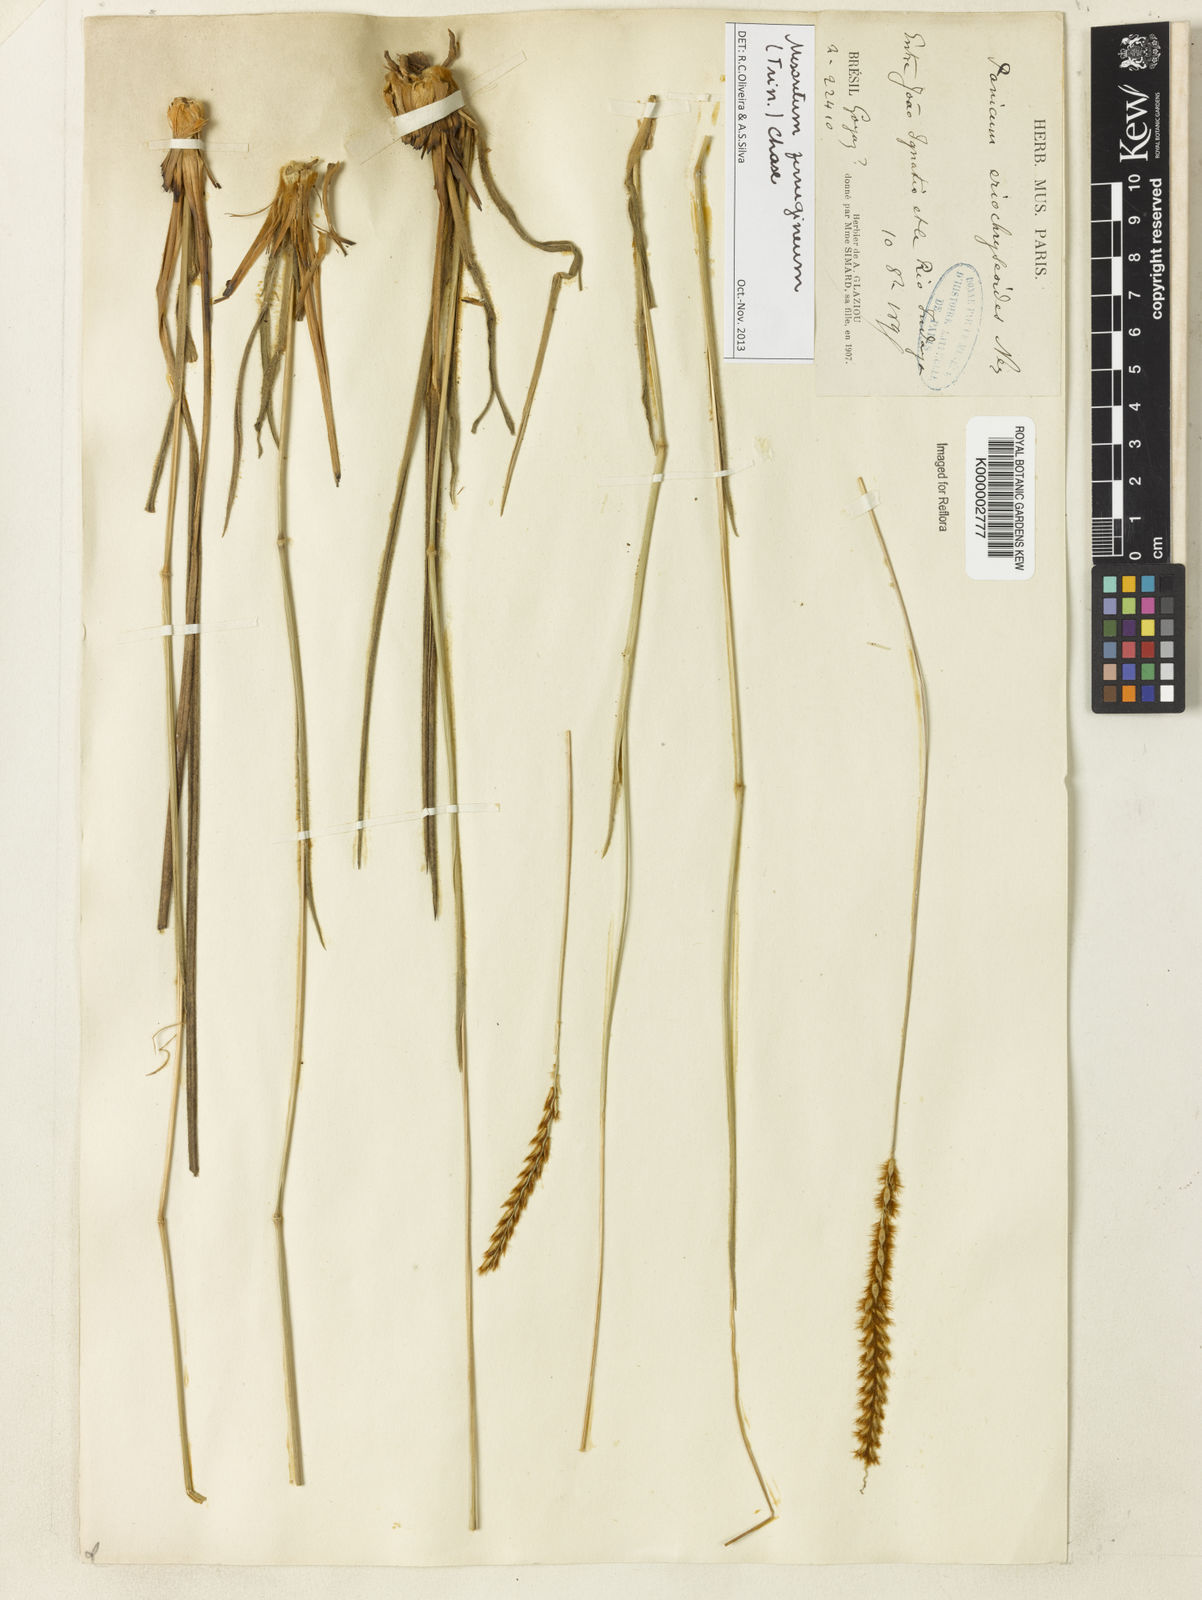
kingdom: Plantae
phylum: Tracheophyta
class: Liliopsida
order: Poales
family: Poaceae
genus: Mesosetum
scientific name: Mesosetum ferrugineum
